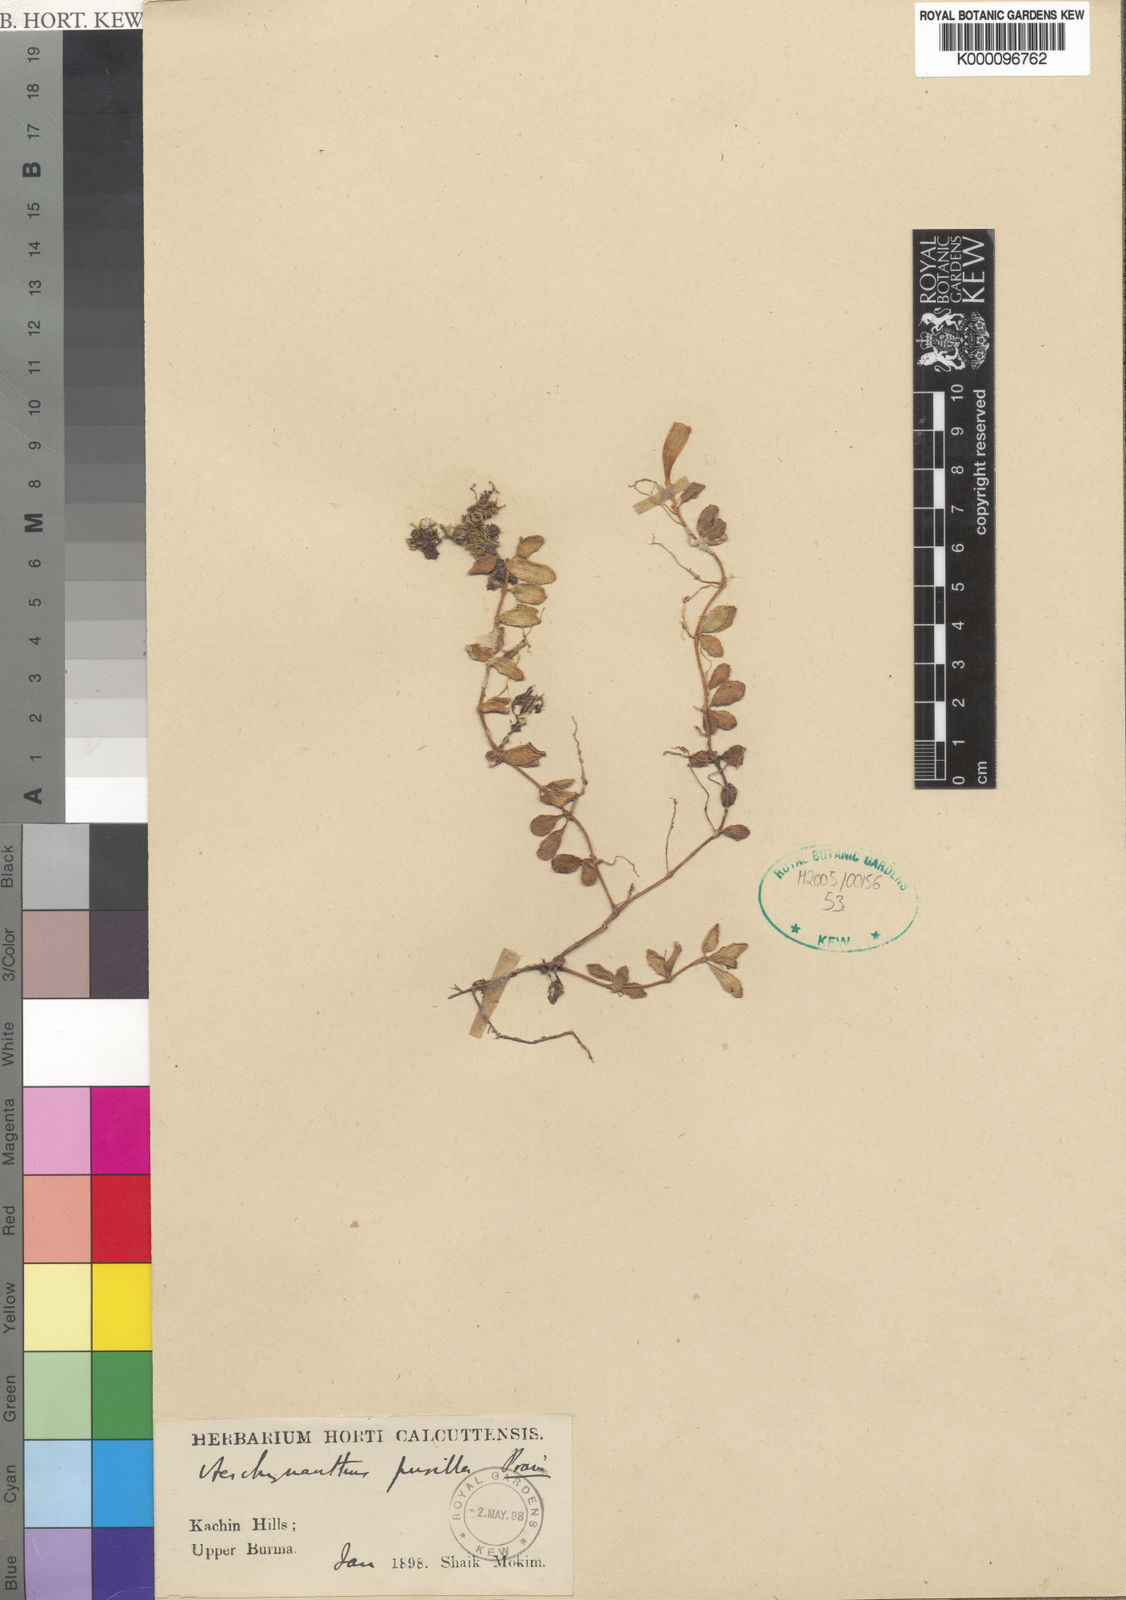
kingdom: Plantae
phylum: Tracheophyta
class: Magnoliopsida
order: Lamiales
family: Gesneriaceae
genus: Aeschynanthus
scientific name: Aeschynanthus chiritoides
